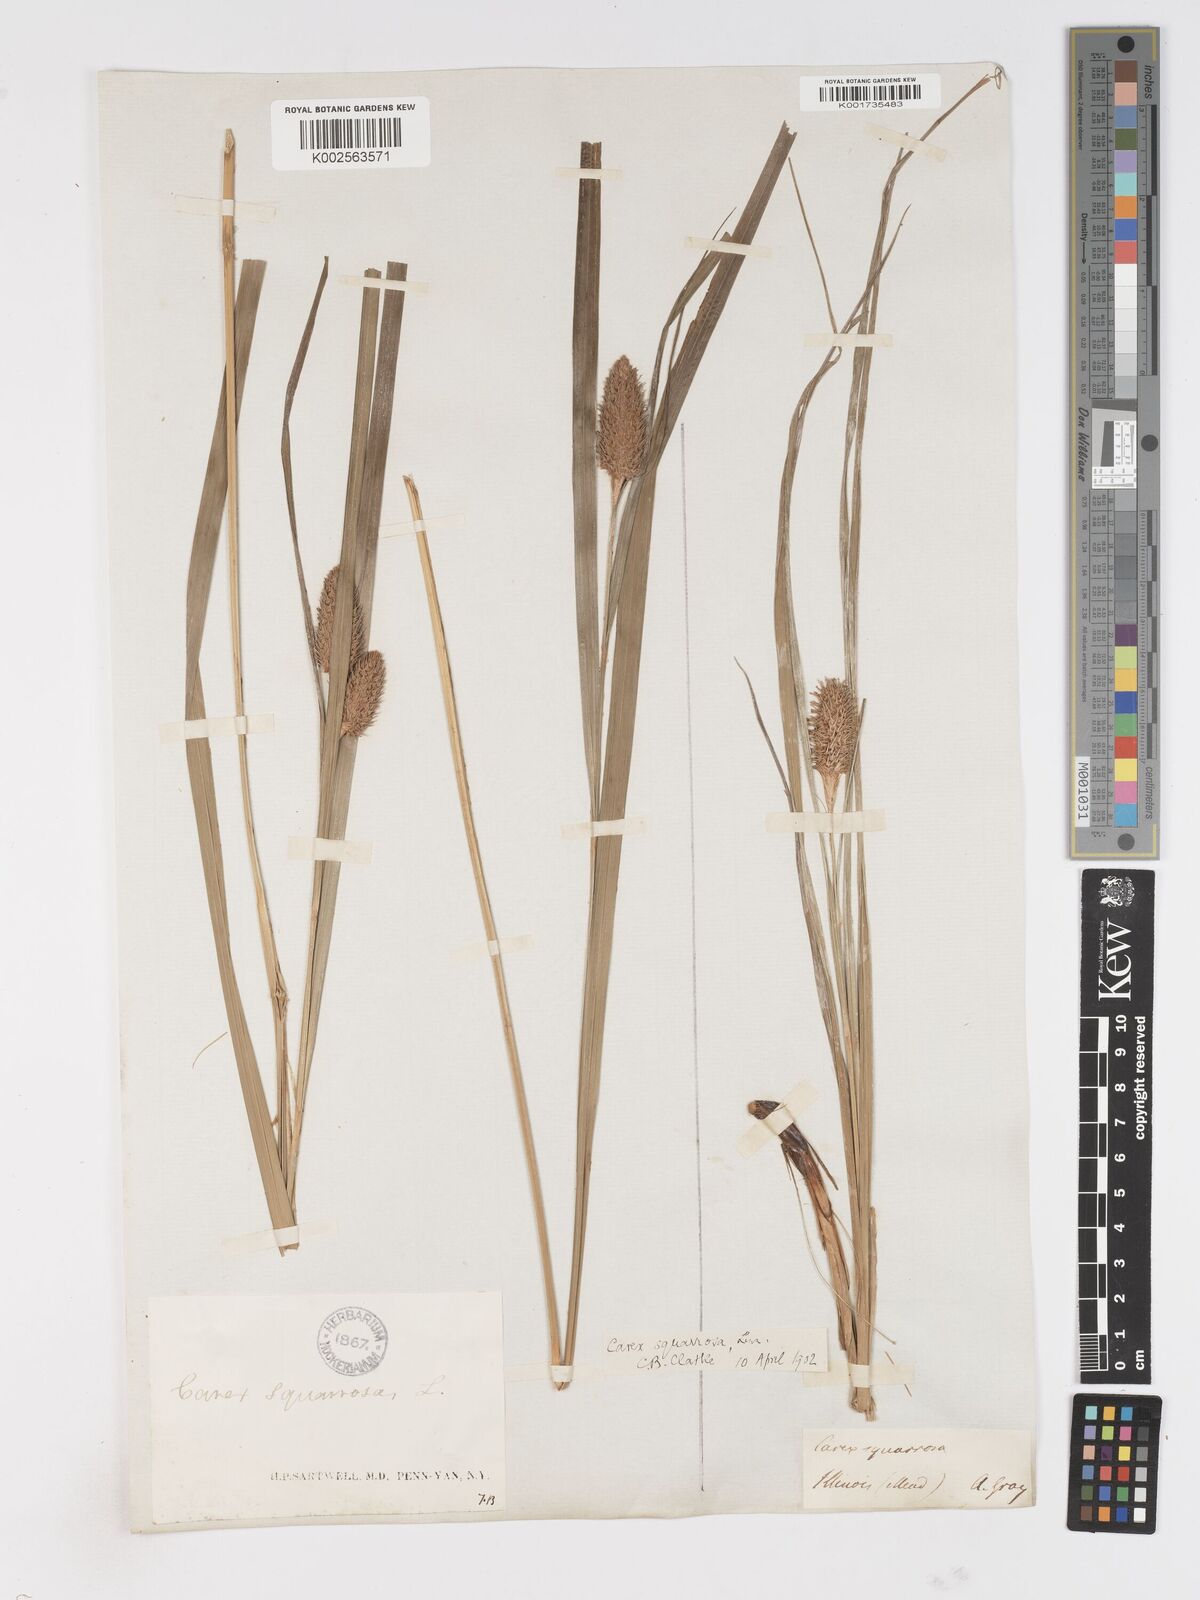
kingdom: Plantae
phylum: Tracheophyta
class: Liliopsida
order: Poales
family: Cyperaceae
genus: Carex
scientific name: Carex squarrosa
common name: Narrow-leaved cattail sedge
